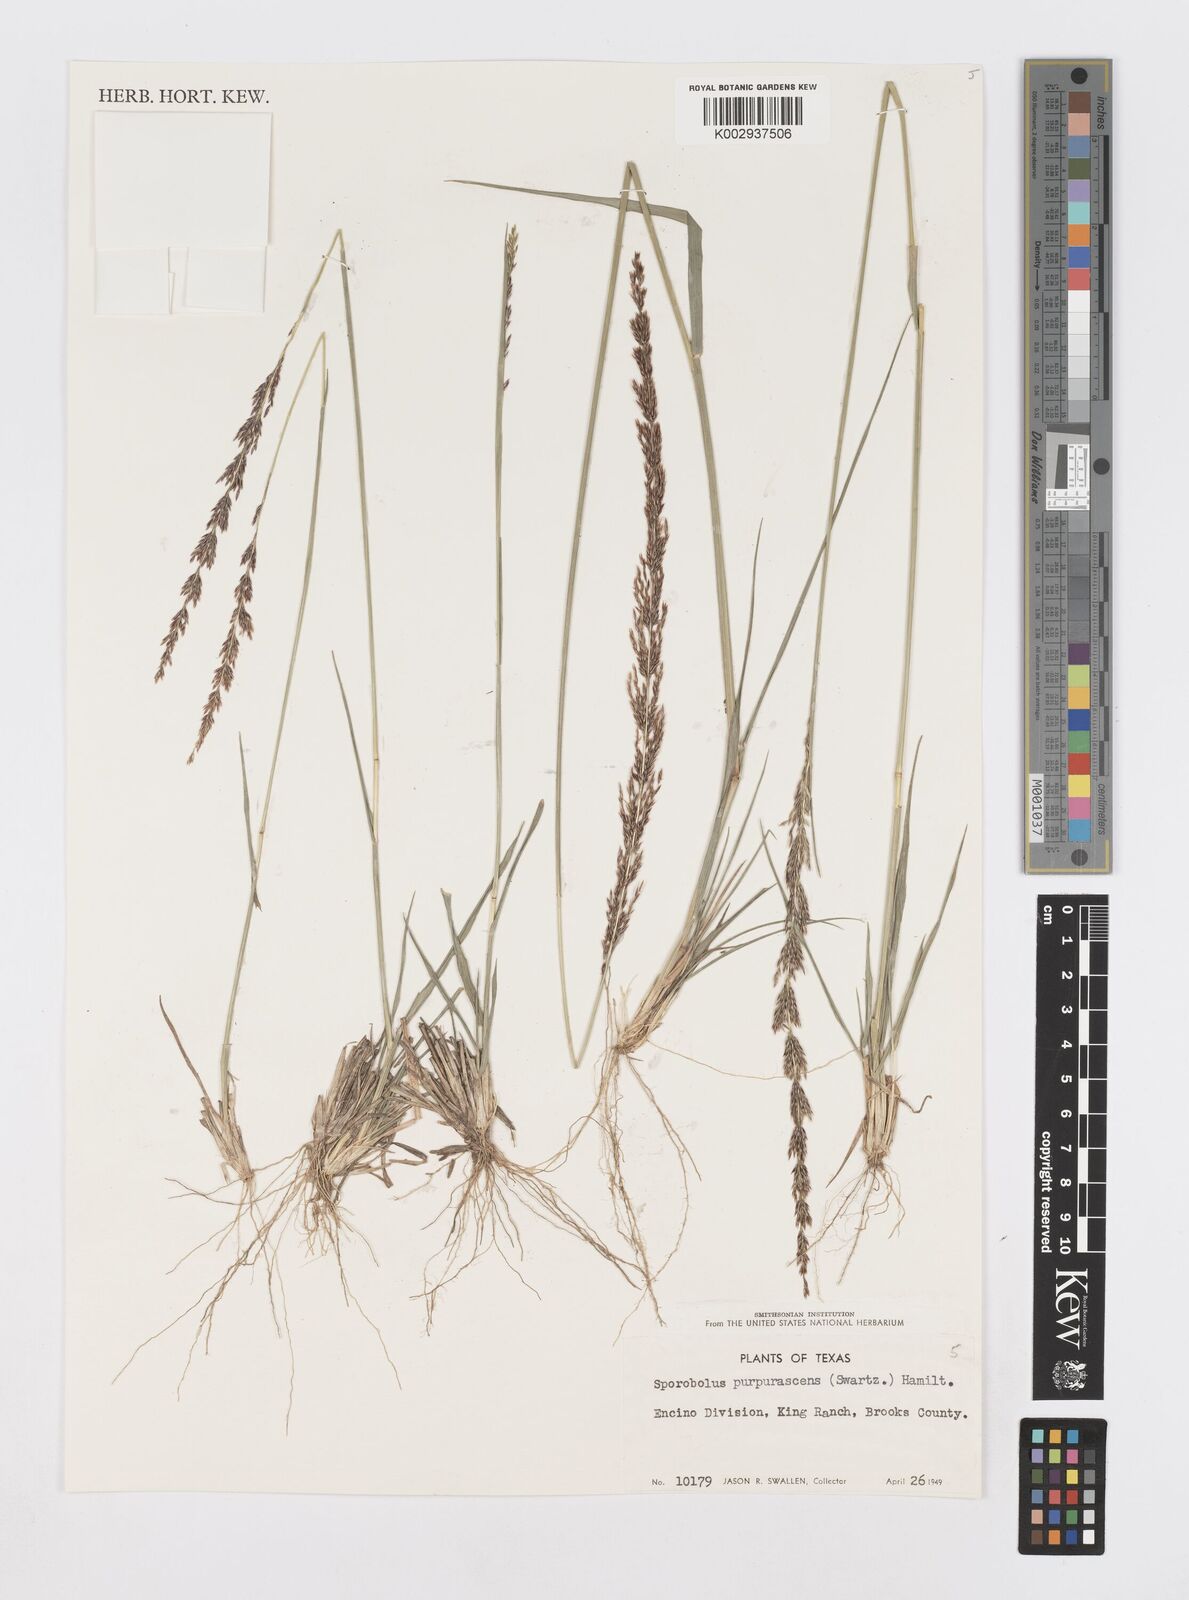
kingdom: Plantae
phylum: Tracheophyta
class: Liliopsida
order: Poales
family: Poaceae
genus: Sporobolus
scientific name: Sporobolus purpurascens
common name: Purple dropseed
